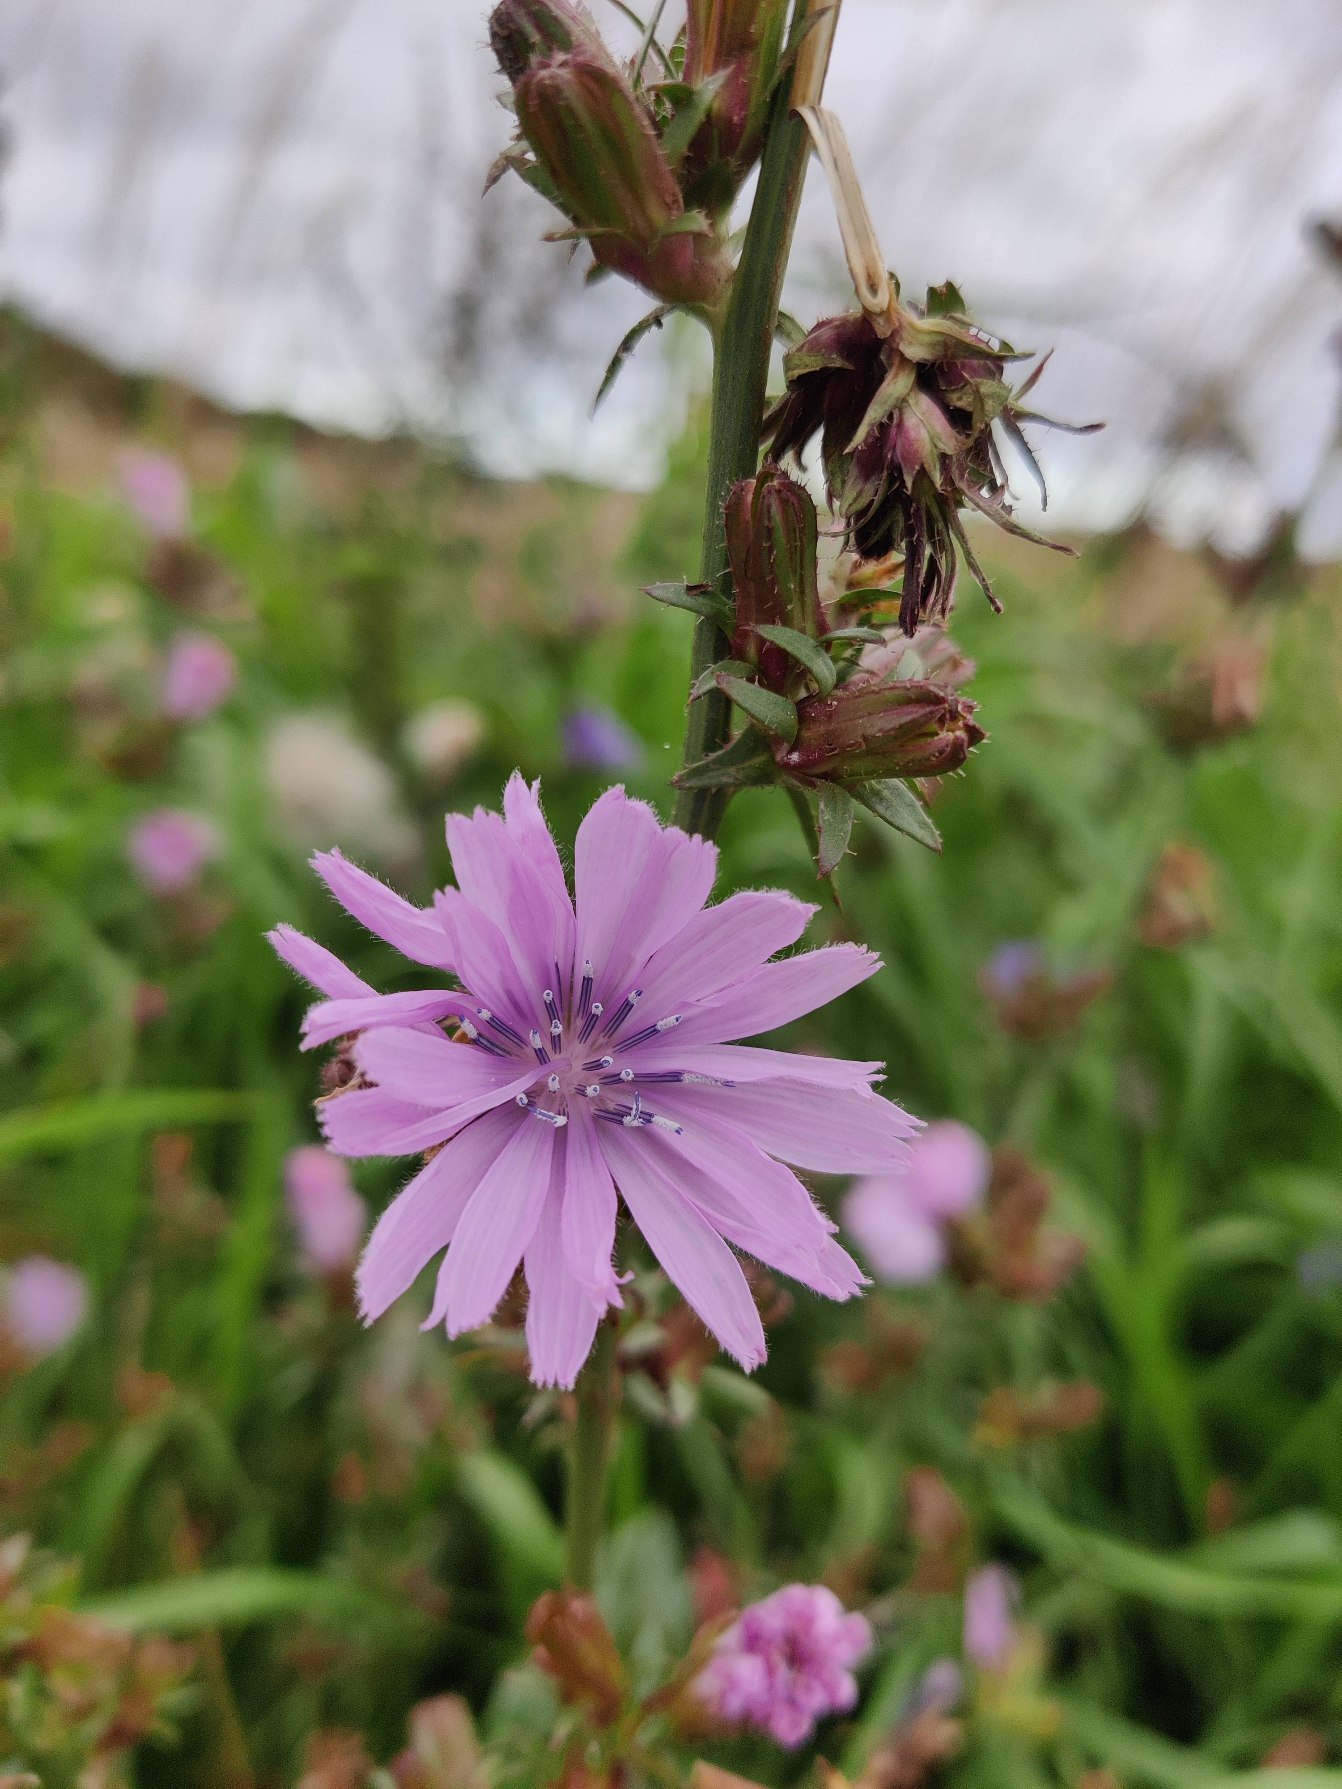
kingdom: Plantae
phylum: Tracheophyta
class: Magnoliopsida
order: Asterales
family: Asteraceae
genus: Cichorium
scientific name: Cichorium intybus
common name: Cikorie
